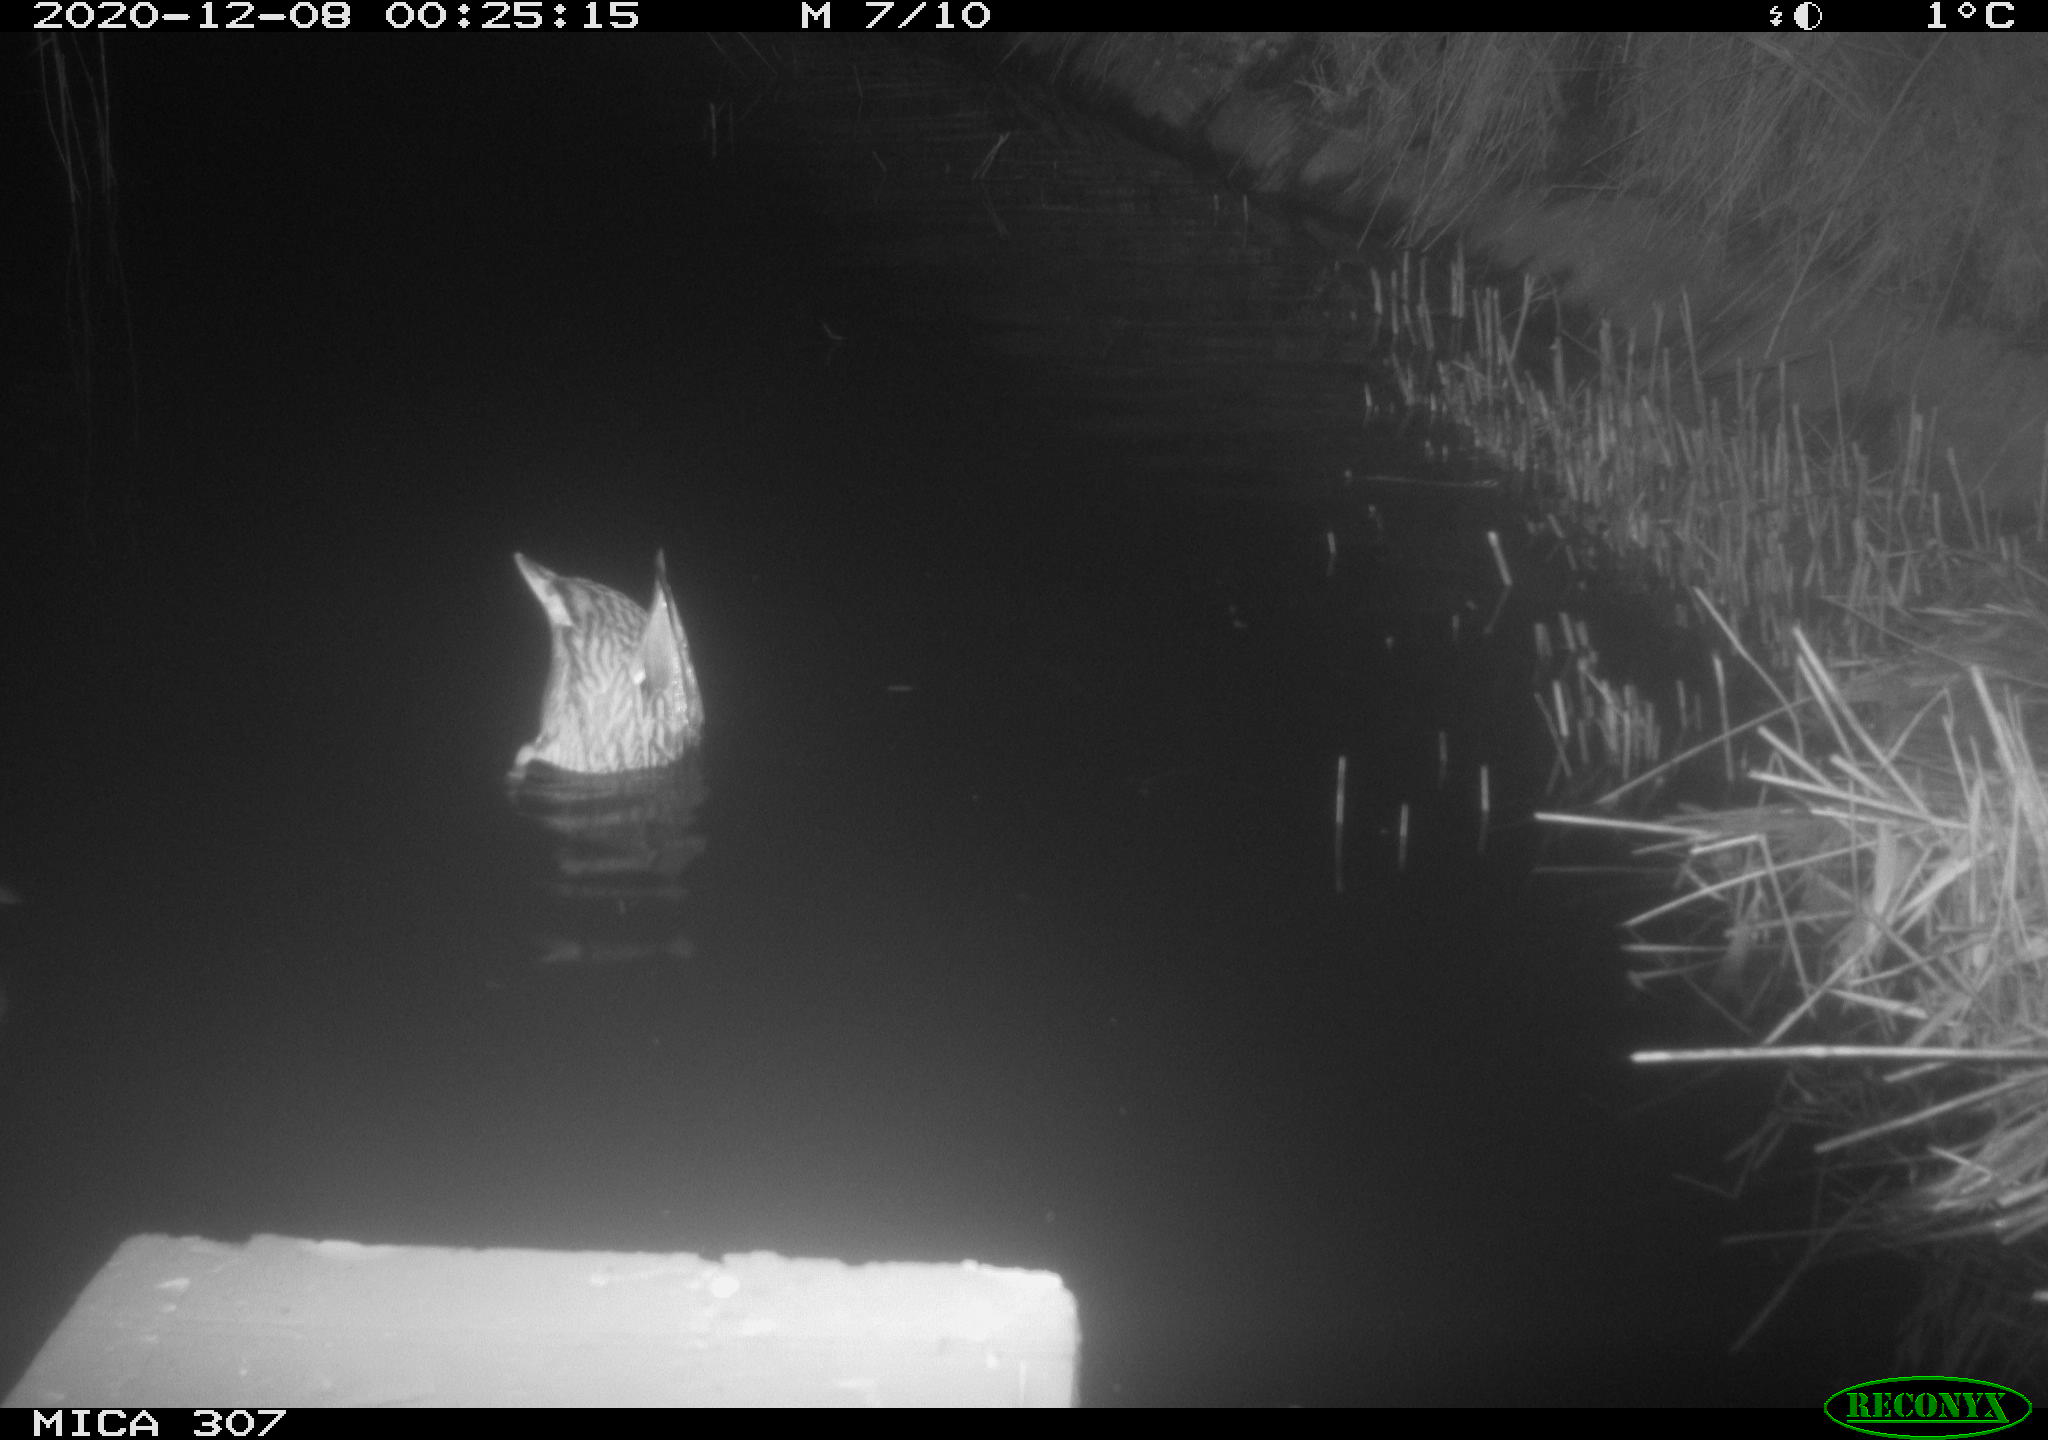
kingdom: Animalia
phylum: Chordata
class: Aves
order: Anseriformes
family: Anatidae
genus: Anas
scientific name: Anas platyrhynchos
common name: Mallard
